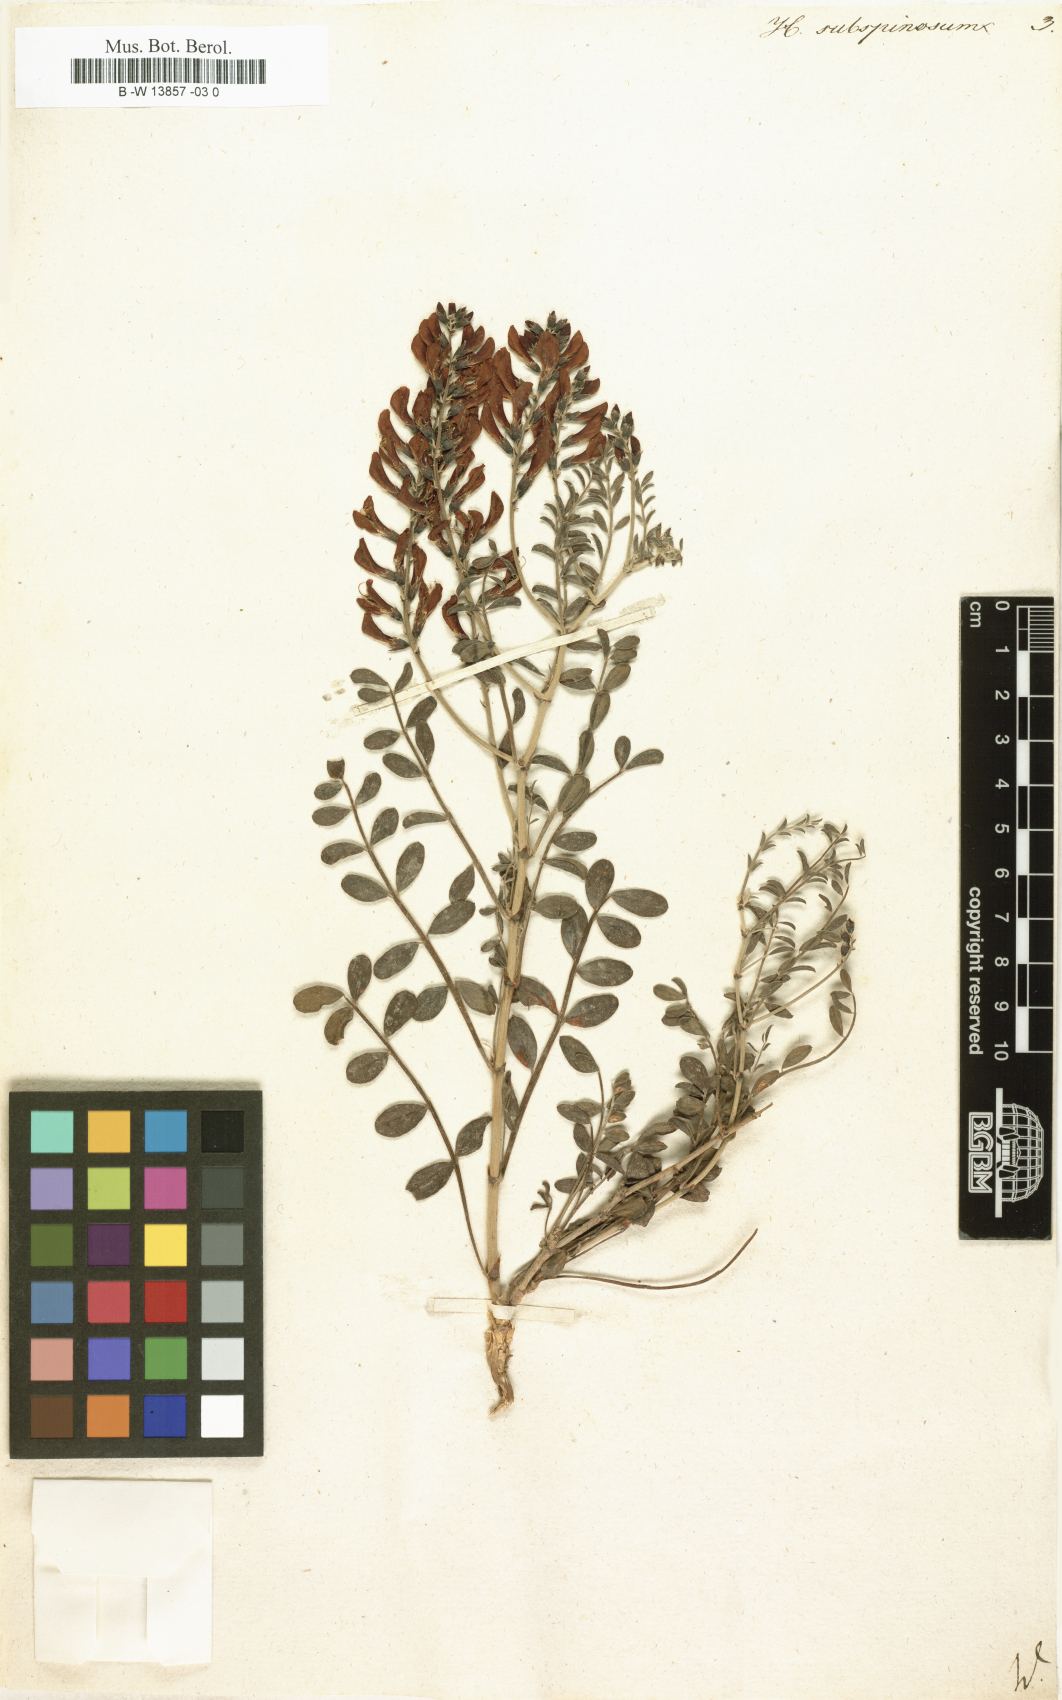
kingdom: Plantae
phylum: Tracheophyta
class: Magnoliopsida
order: Fabales
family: Fabaceae
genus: Eversmannia
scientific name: Eversmannia subspinosa
